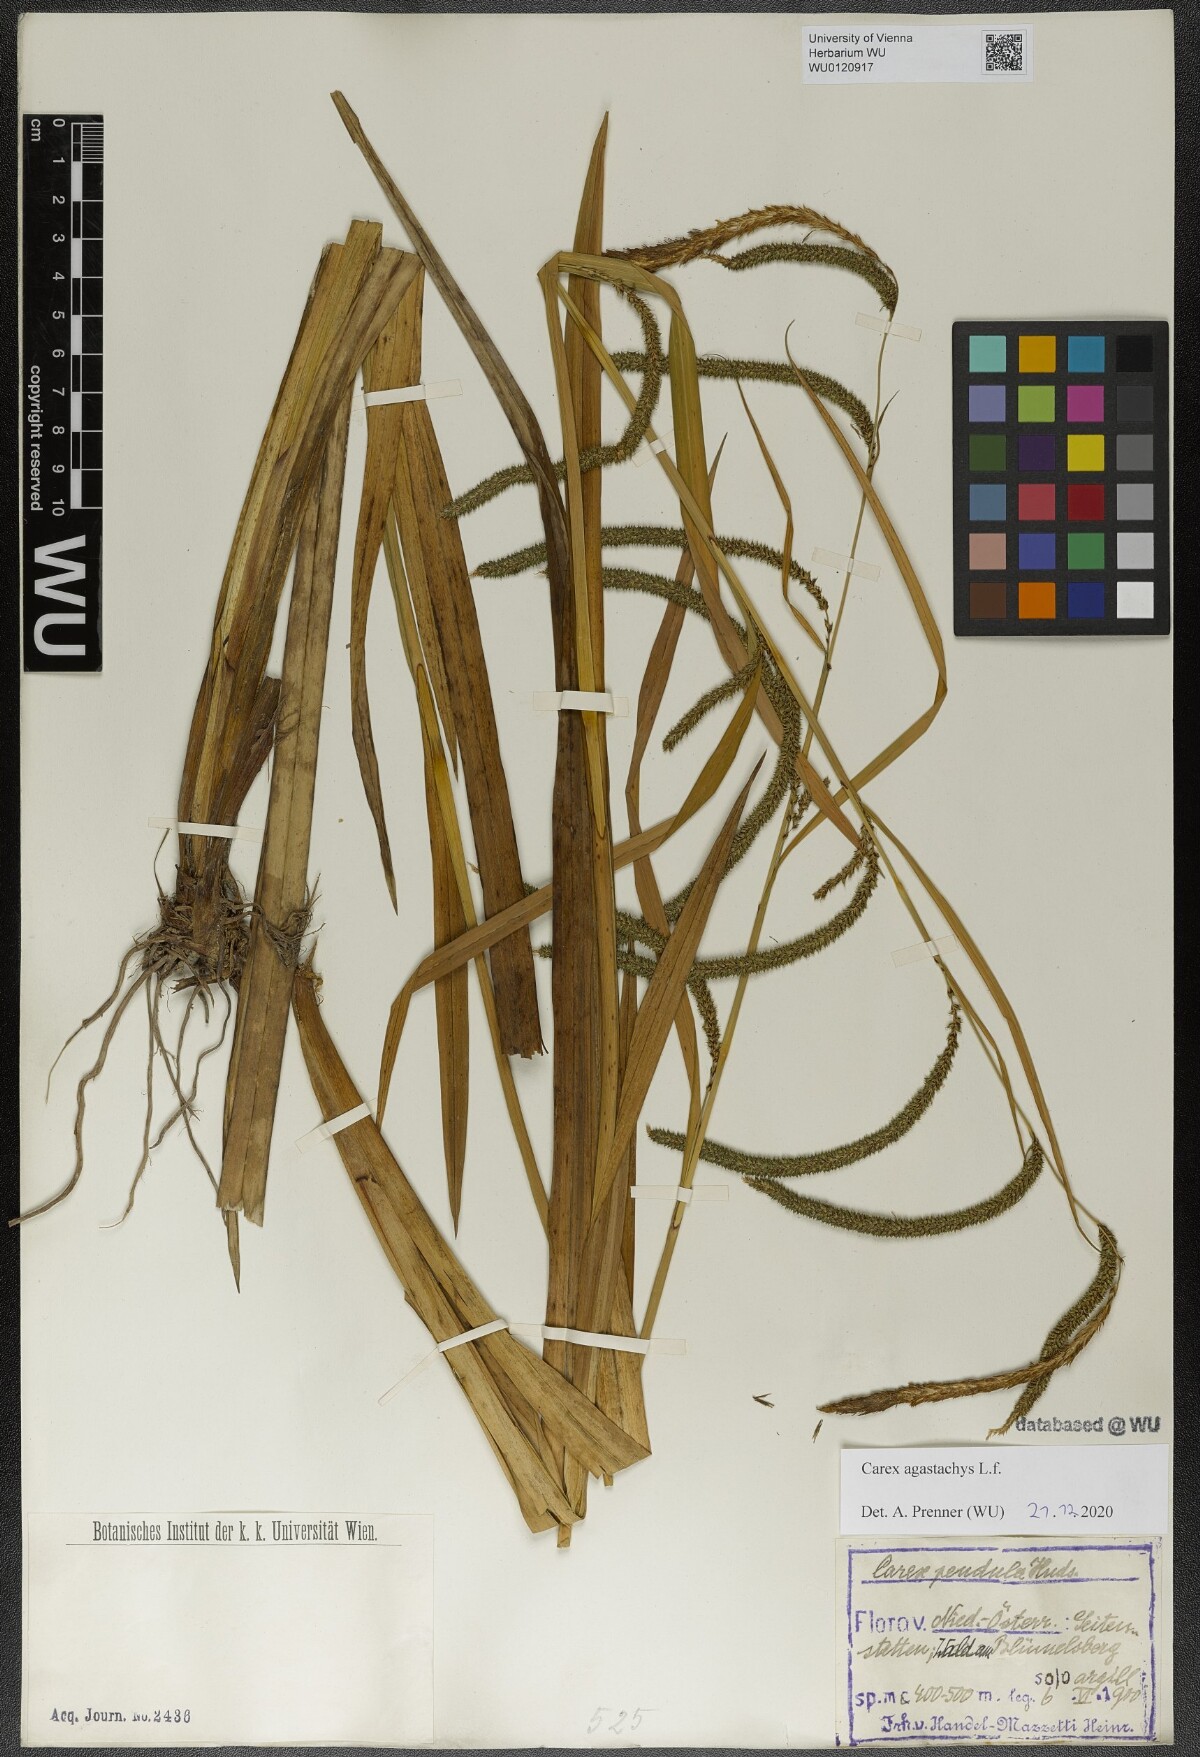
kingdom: Plantae
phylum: Tracheophyta
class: Liliopsida
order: Poales
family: Cyperaceae
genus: Carex
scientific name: Carex agastachys
